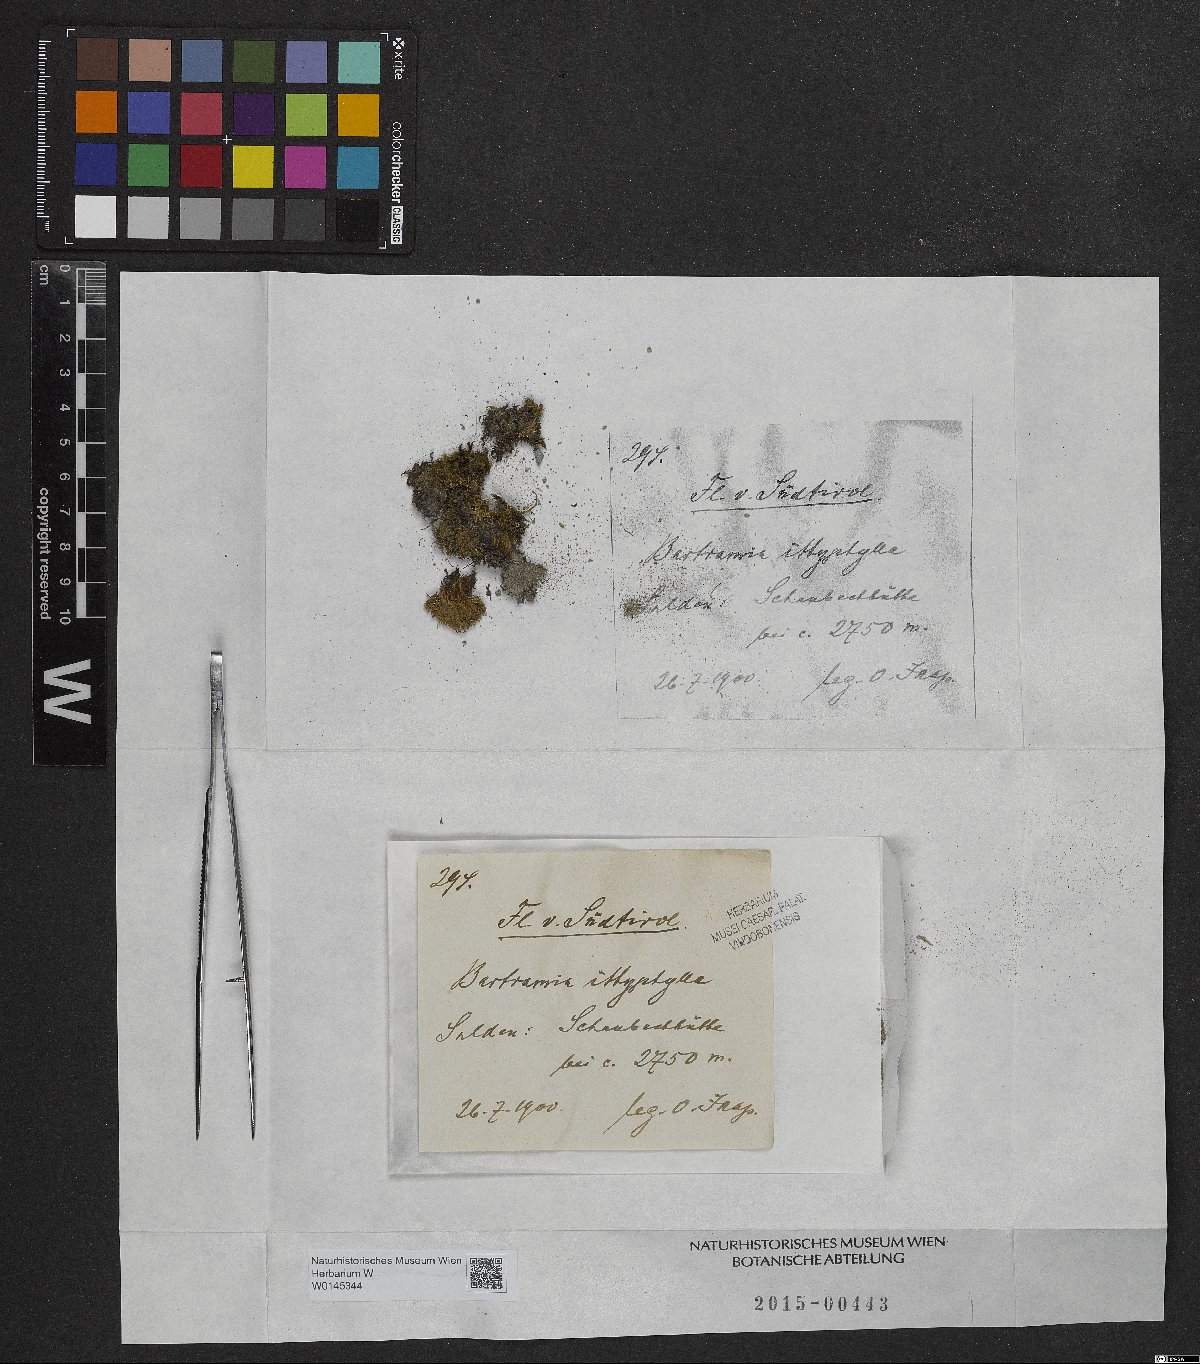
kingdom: Plantae
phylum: Bryophyta
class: Bryopsida
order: Bartramiales
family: Bartramiaceae
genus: Bartramia
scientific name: Bartramia ithyphylla
